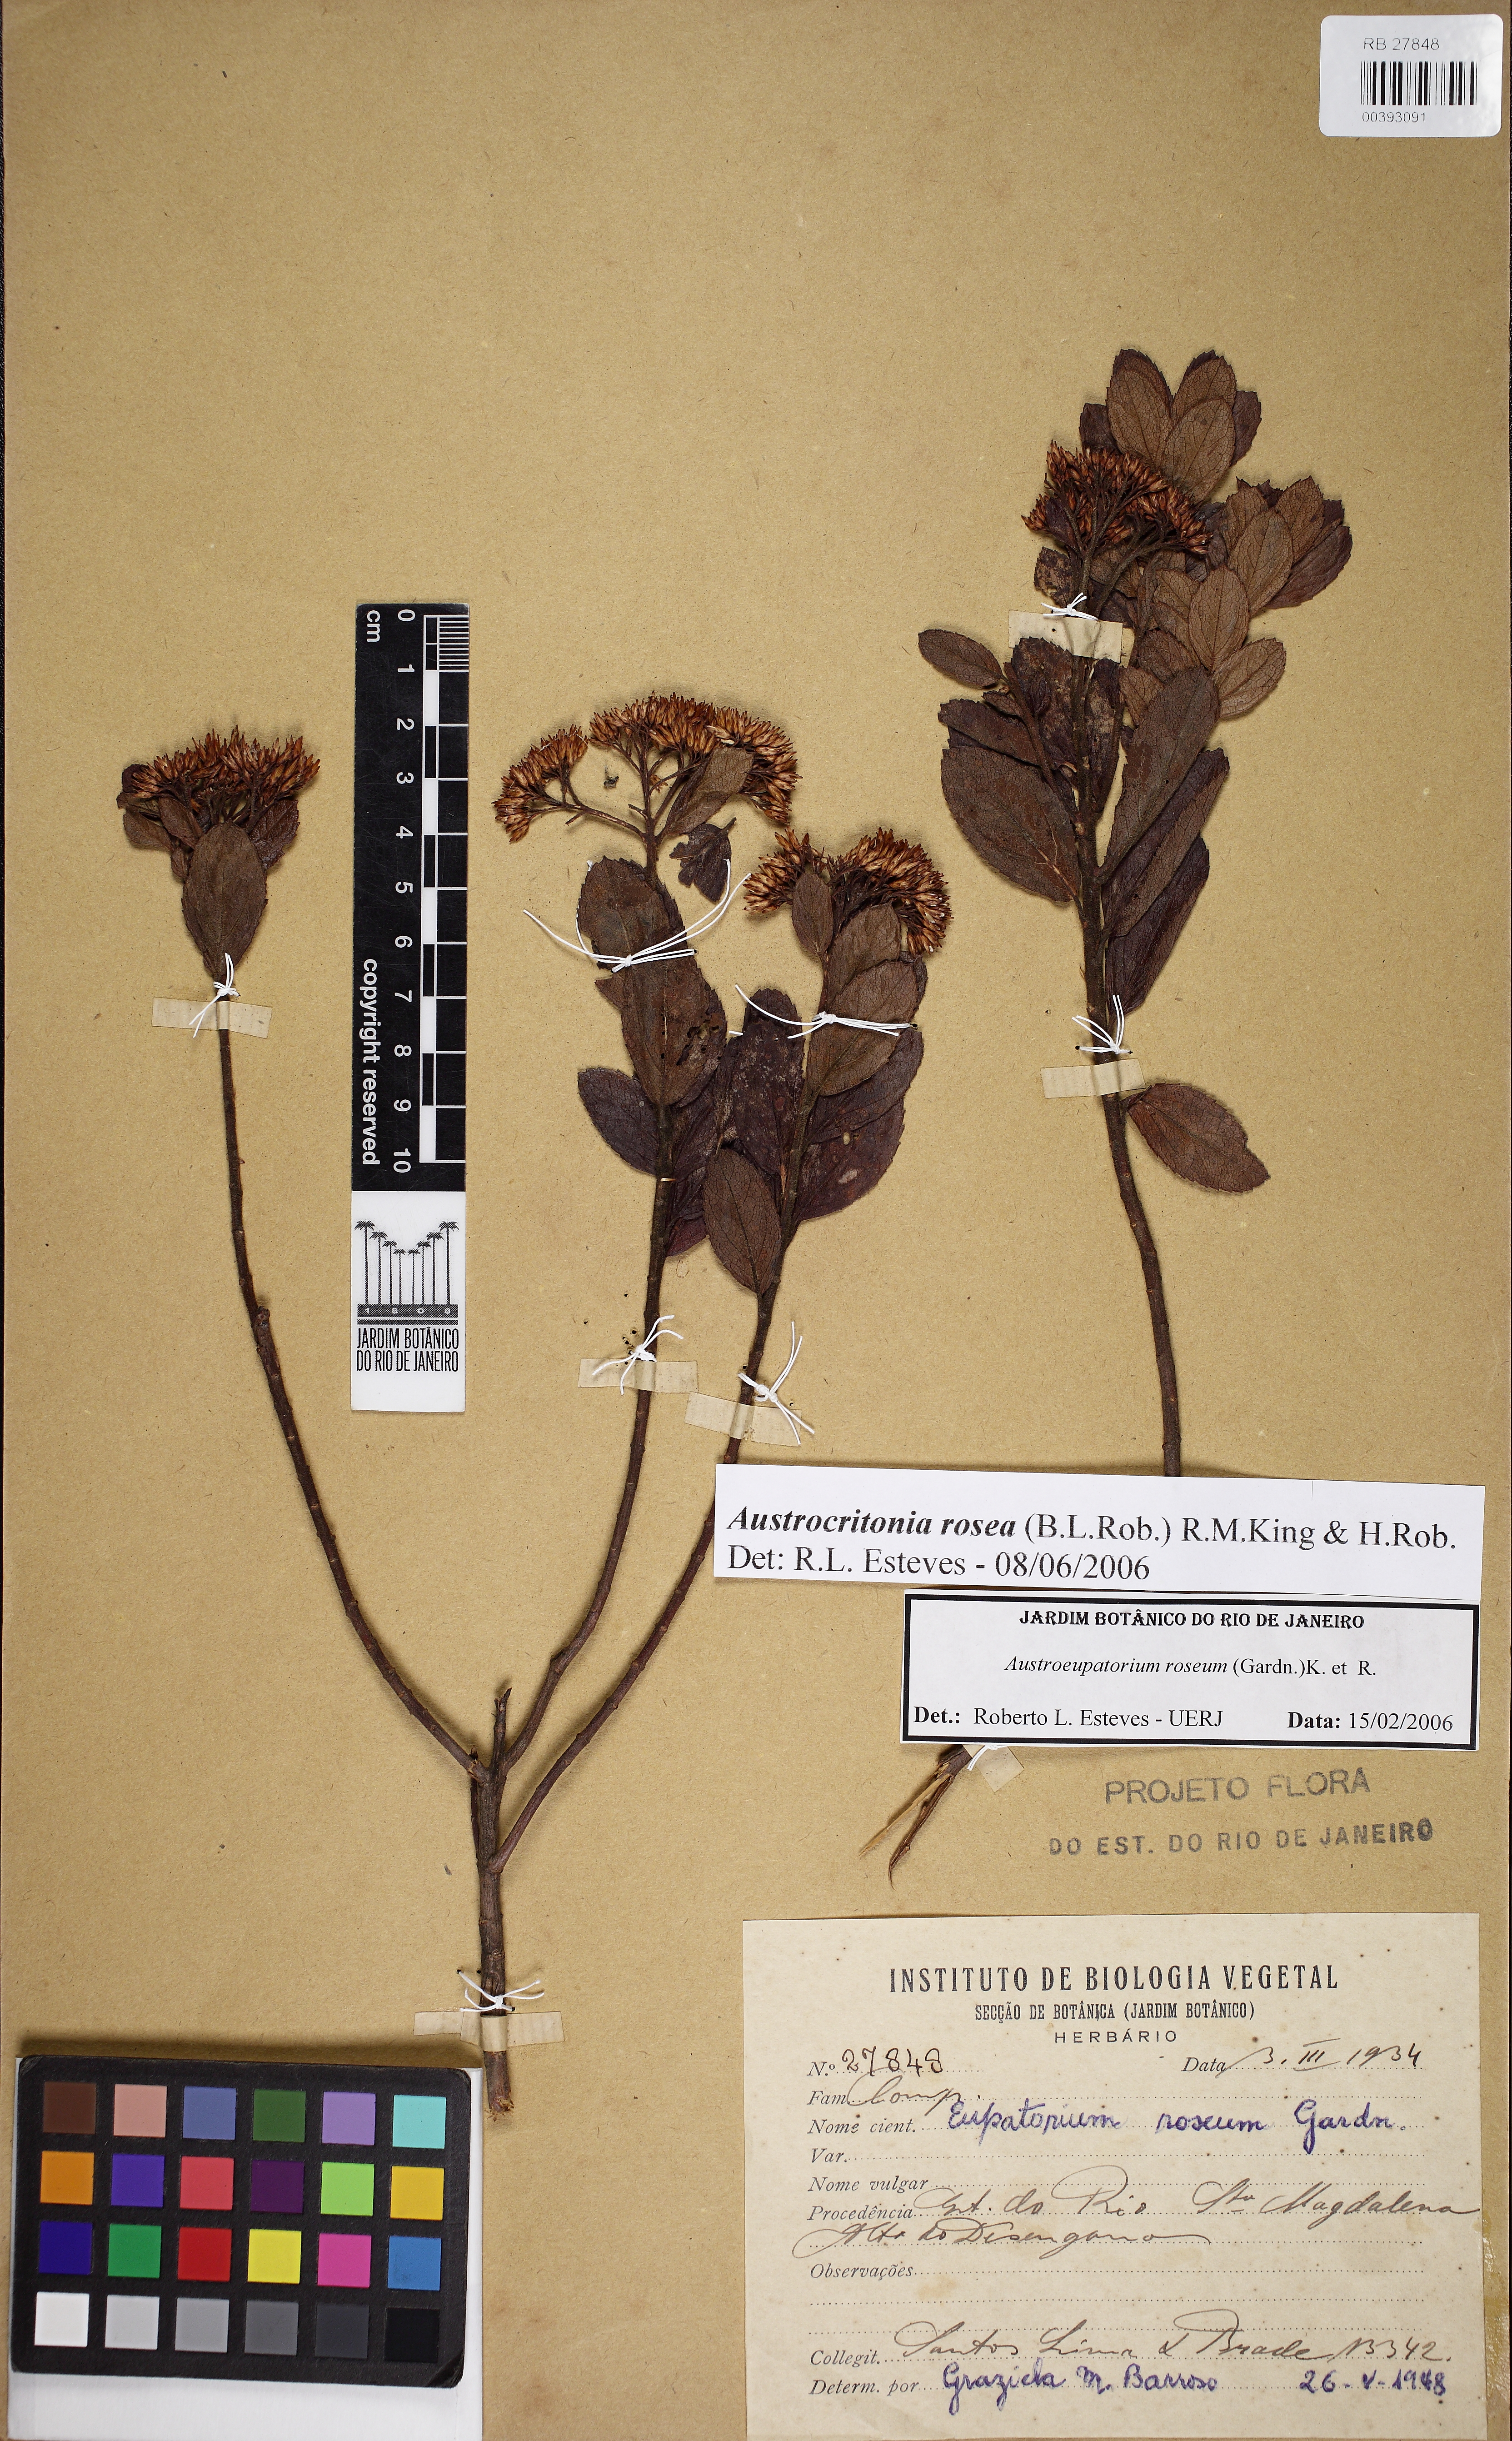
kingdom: Plantae
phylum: Tracheophyta
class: Magnoliopsida
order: Asterales
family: Asteraceae
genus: Austrocritonia
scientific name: Austrocritonia rosea
